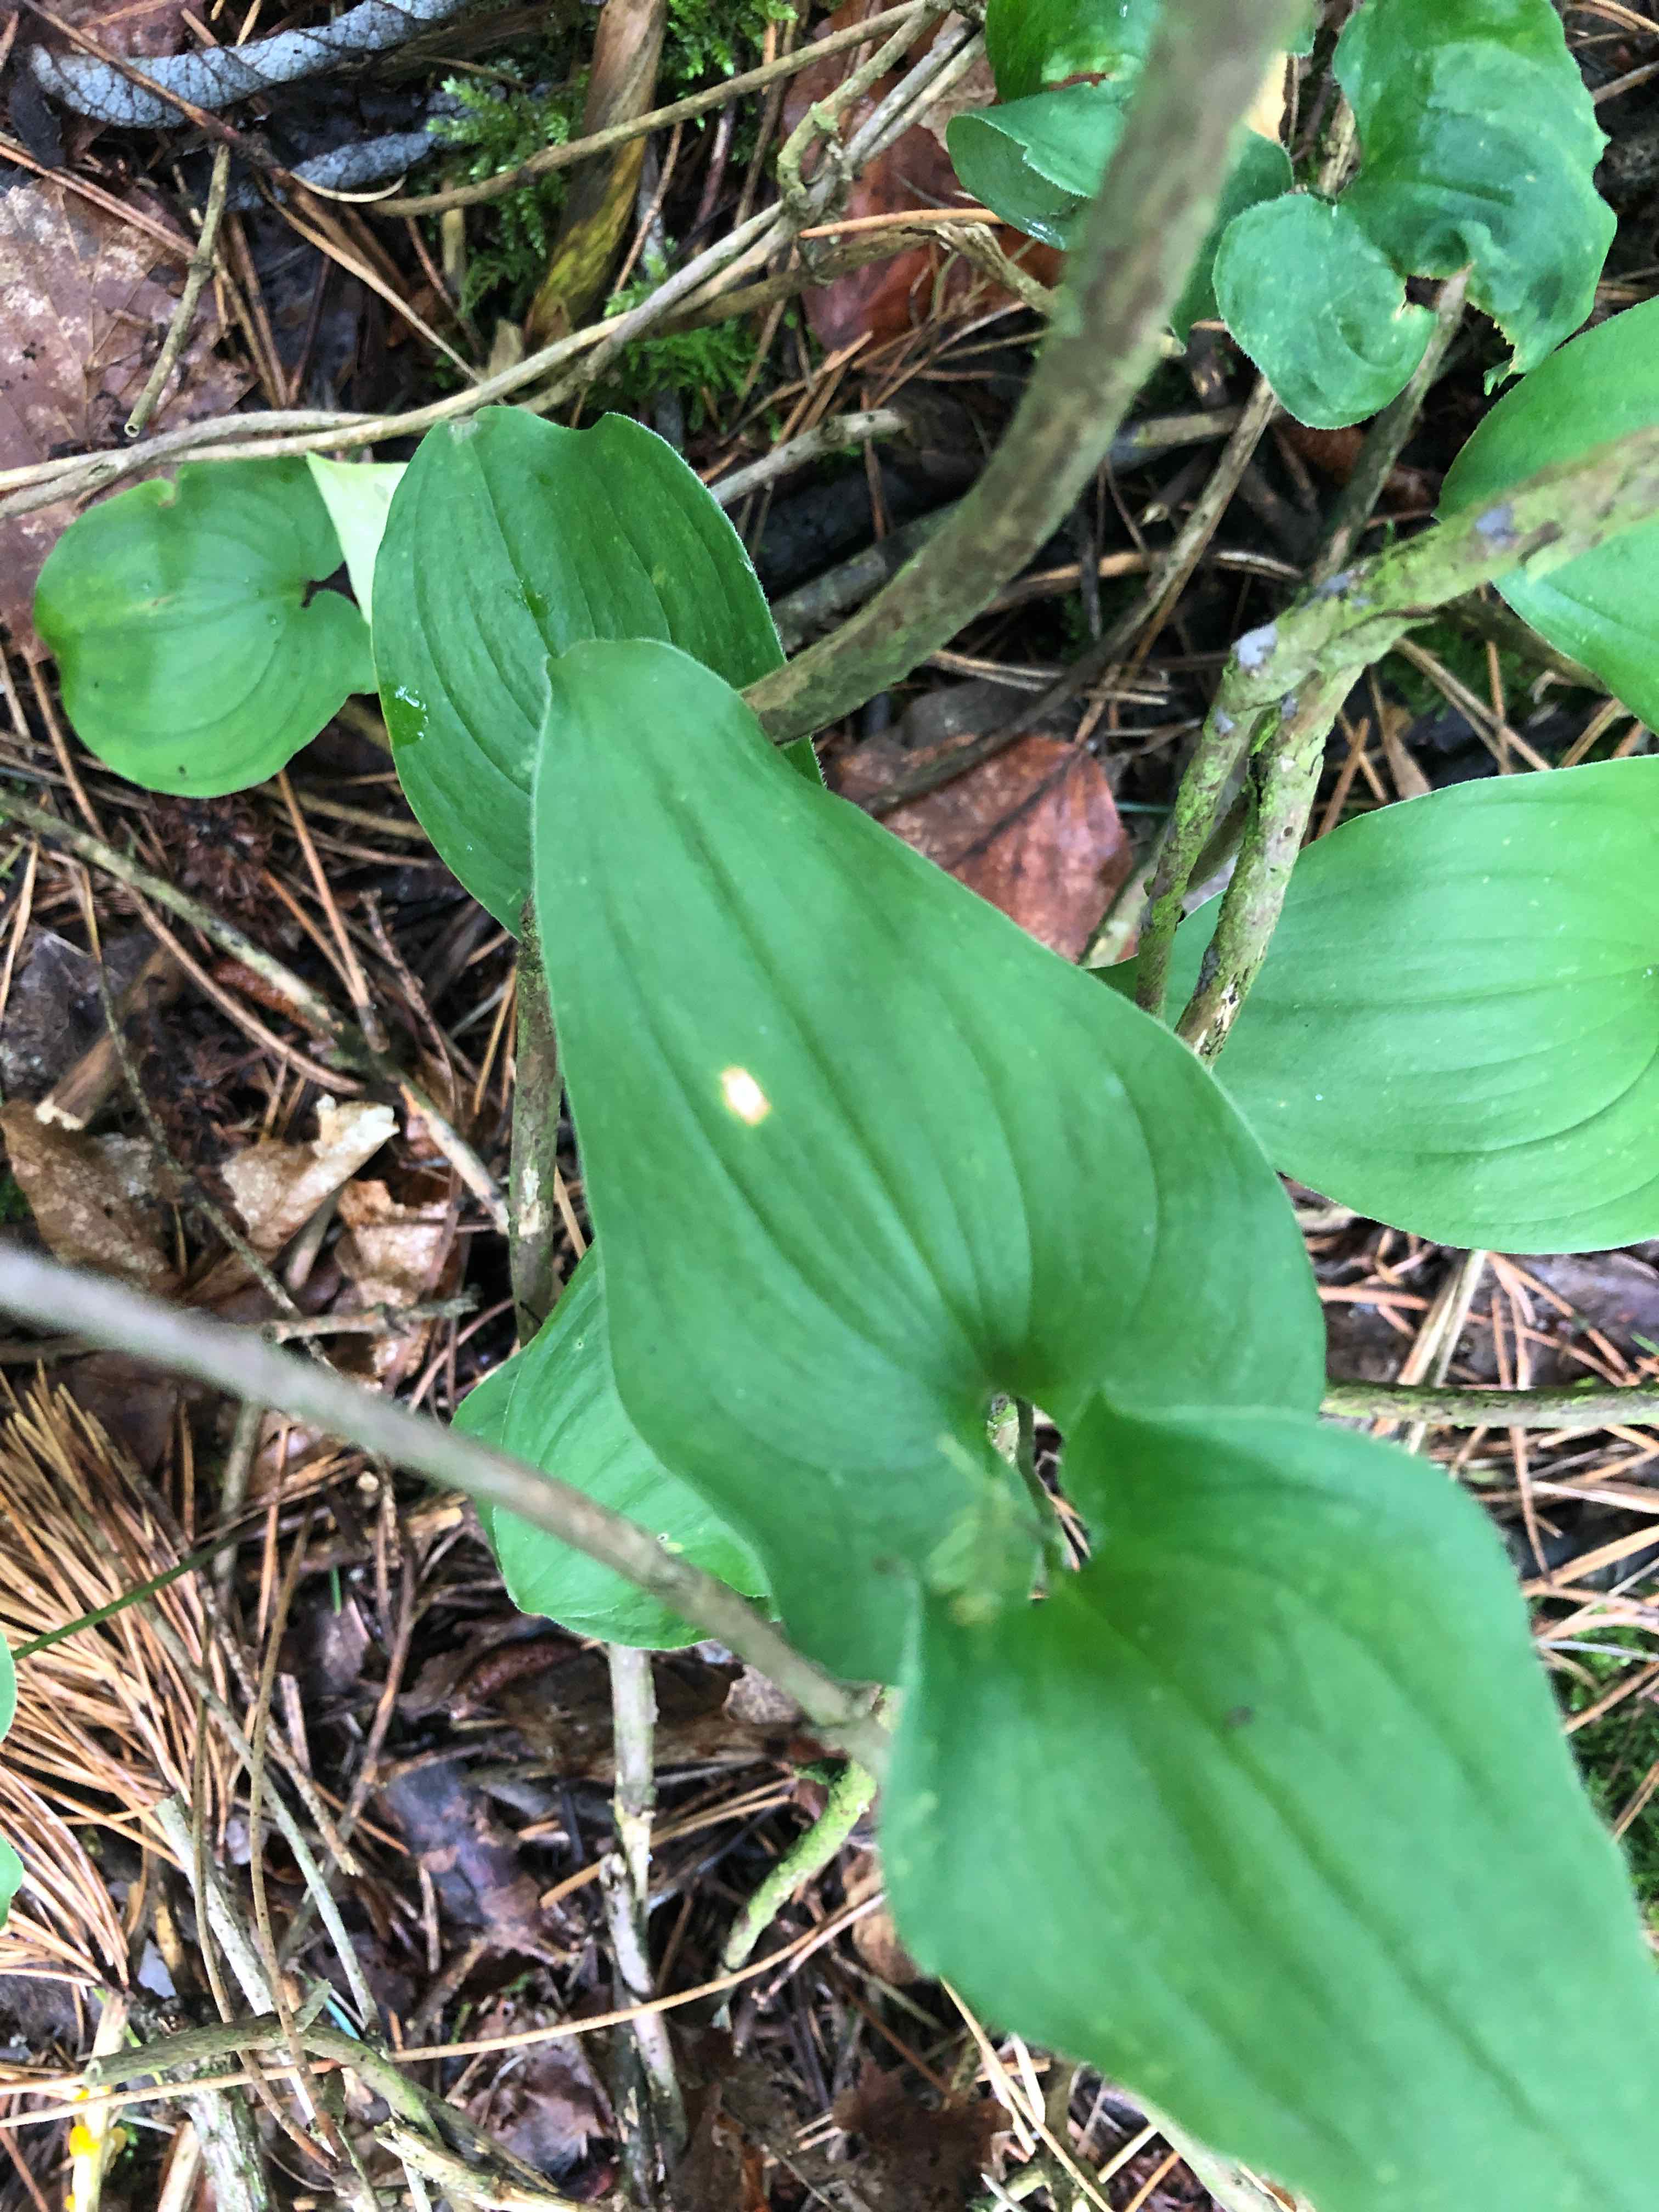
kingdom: Fungi
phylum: Basidiomycota
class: Pucciniomycetes
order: Pucciniales
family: Pucciniaceae
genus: Puccinia
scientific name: Puccinia sessilis
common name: Arum rust
